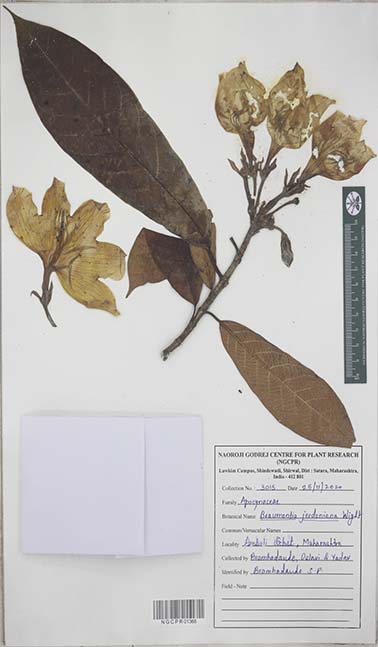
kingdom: Plantae
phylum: Tracheophyta
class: Magnoliopsida
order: Gentianales
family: Apocynaceae
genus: Beaumontia
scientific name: Beaumontia jerdoniana
